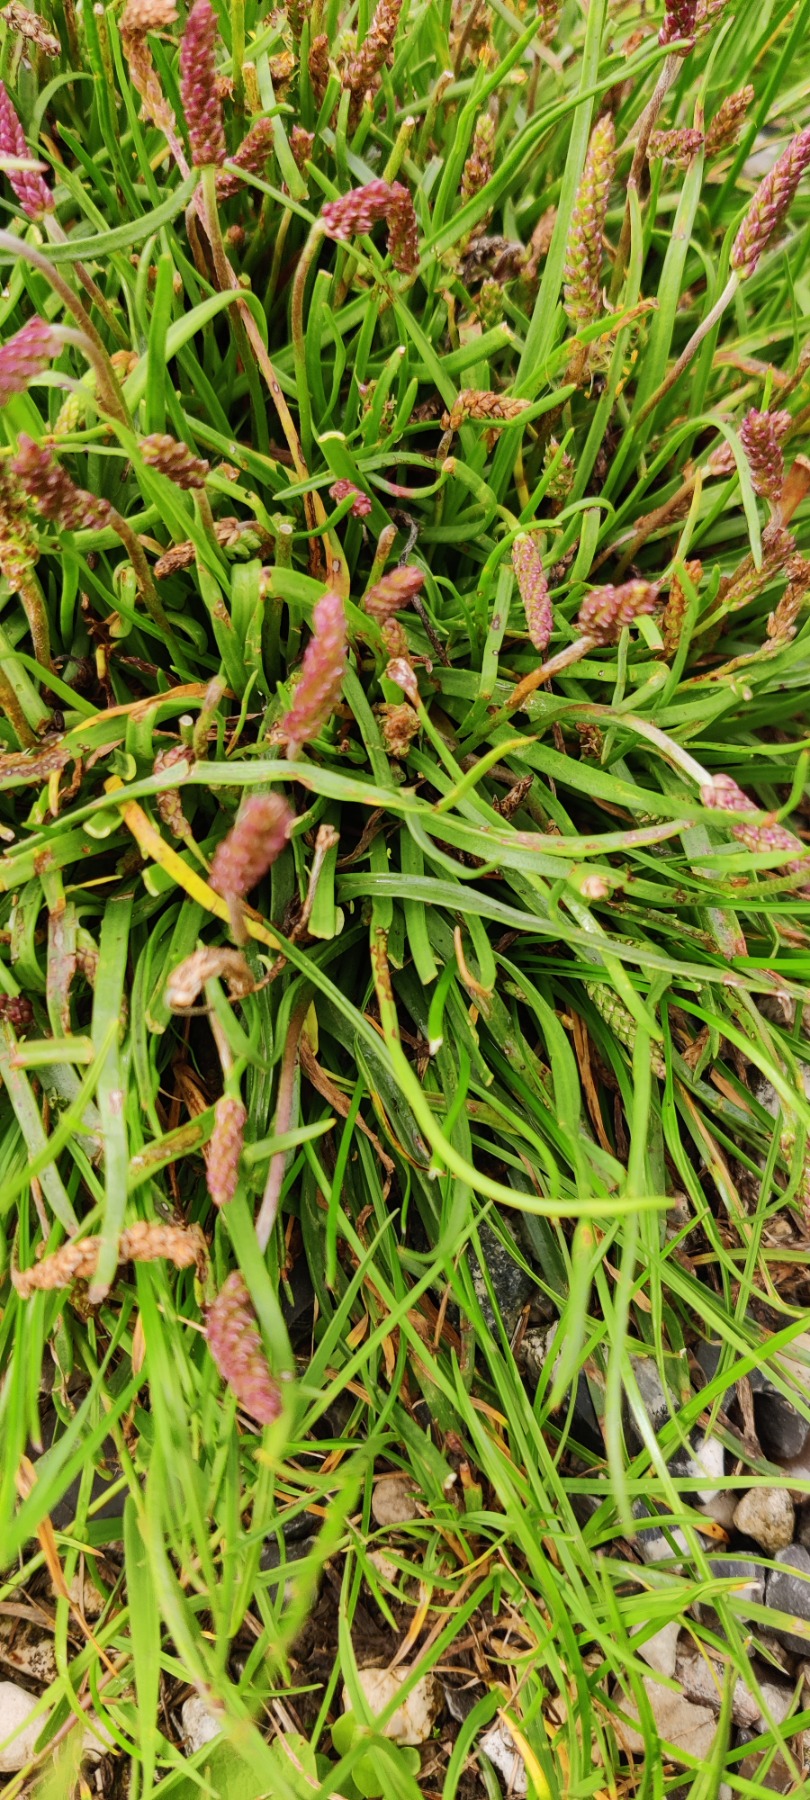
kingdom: Plantae
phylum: Tracheophyta
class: Magnoliopsida
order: Lamiales
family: Plantaginaceae
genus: Plantago
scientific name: Plantago maritima
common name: Strand-vejbred
